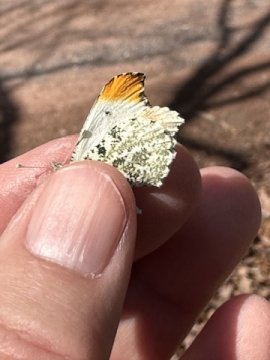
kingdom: Animalia
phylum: Arthropoda
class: Insecta
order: Lepidoptera
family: Pieridae
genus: Anthocharis
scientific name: Anthocharis midea
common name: Falcate Orangetip
